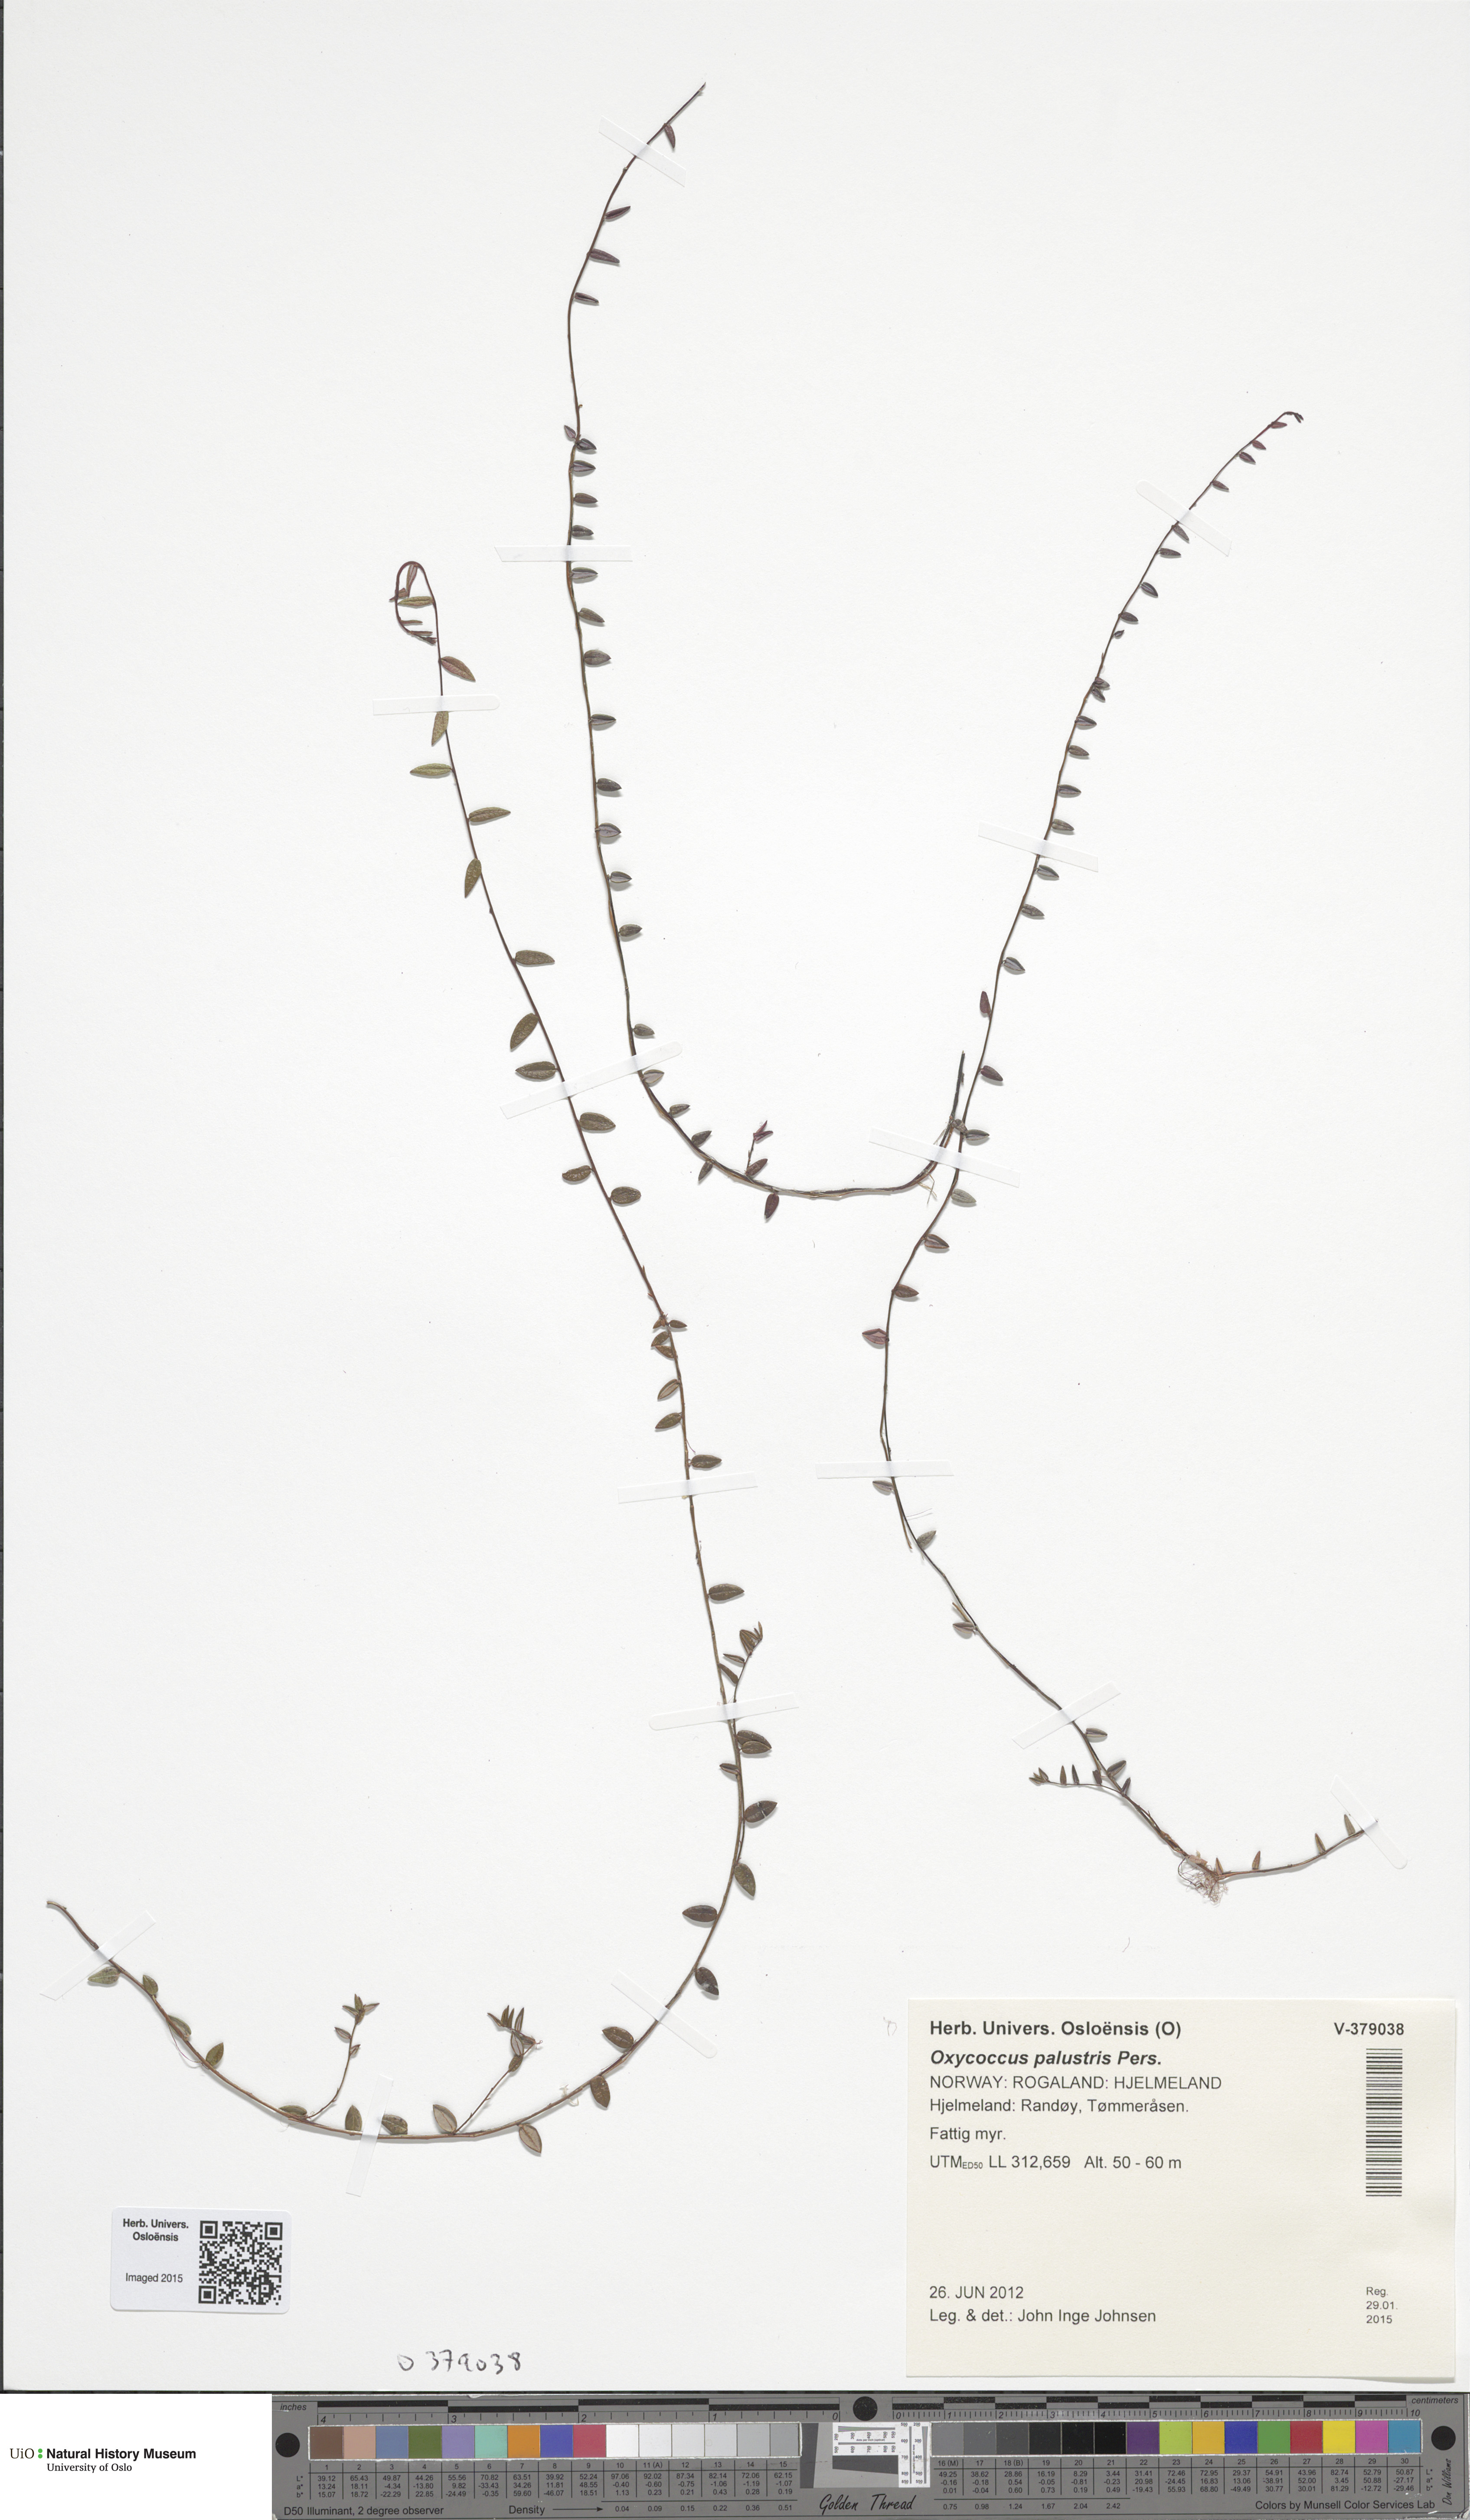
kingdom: Plantae
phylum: Tracheophyta
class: Magnoliopsida
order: Ericales
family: Ericaceae
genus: Vaccinium
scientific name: Vaccinium oxycoccos
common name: Cranberry
